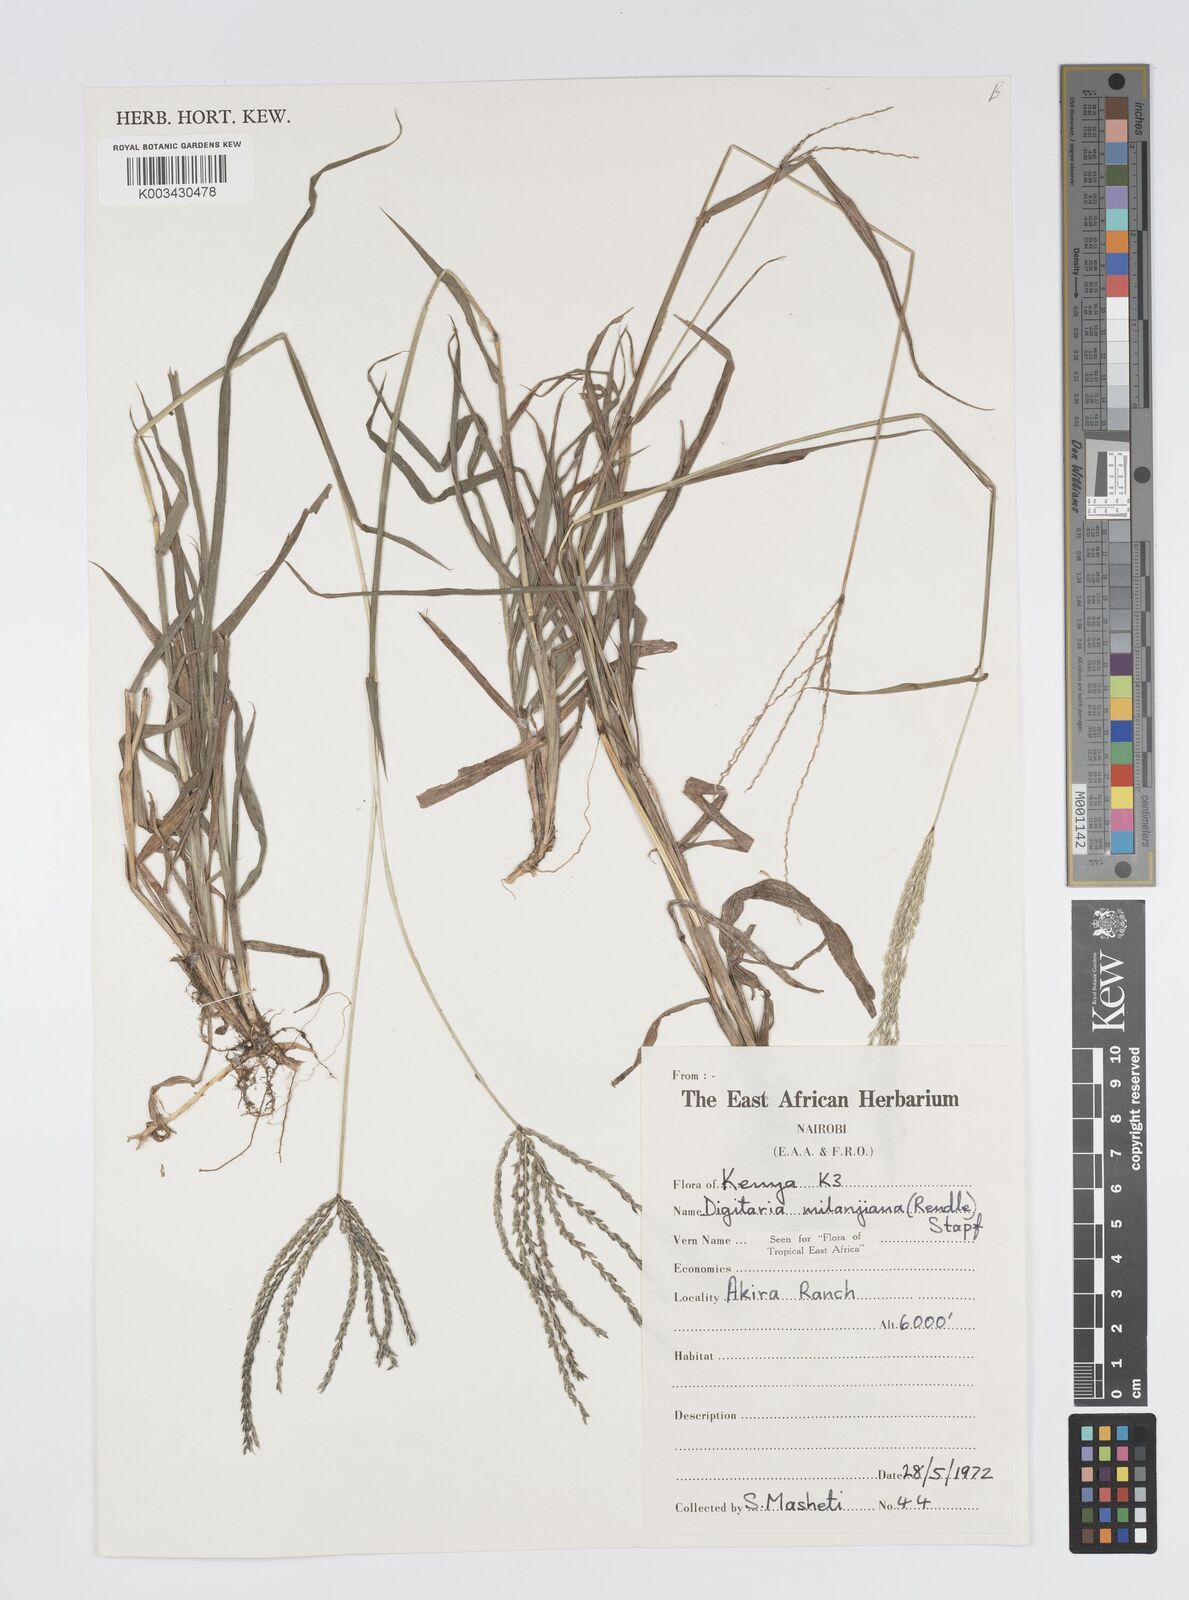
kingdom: Plantae
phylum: Tracheophyta
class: Liliopsida
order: Poales
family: Poaceae
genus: Digitaria
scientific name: Digitaria milanjiana
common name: Madagascar crabgrass
